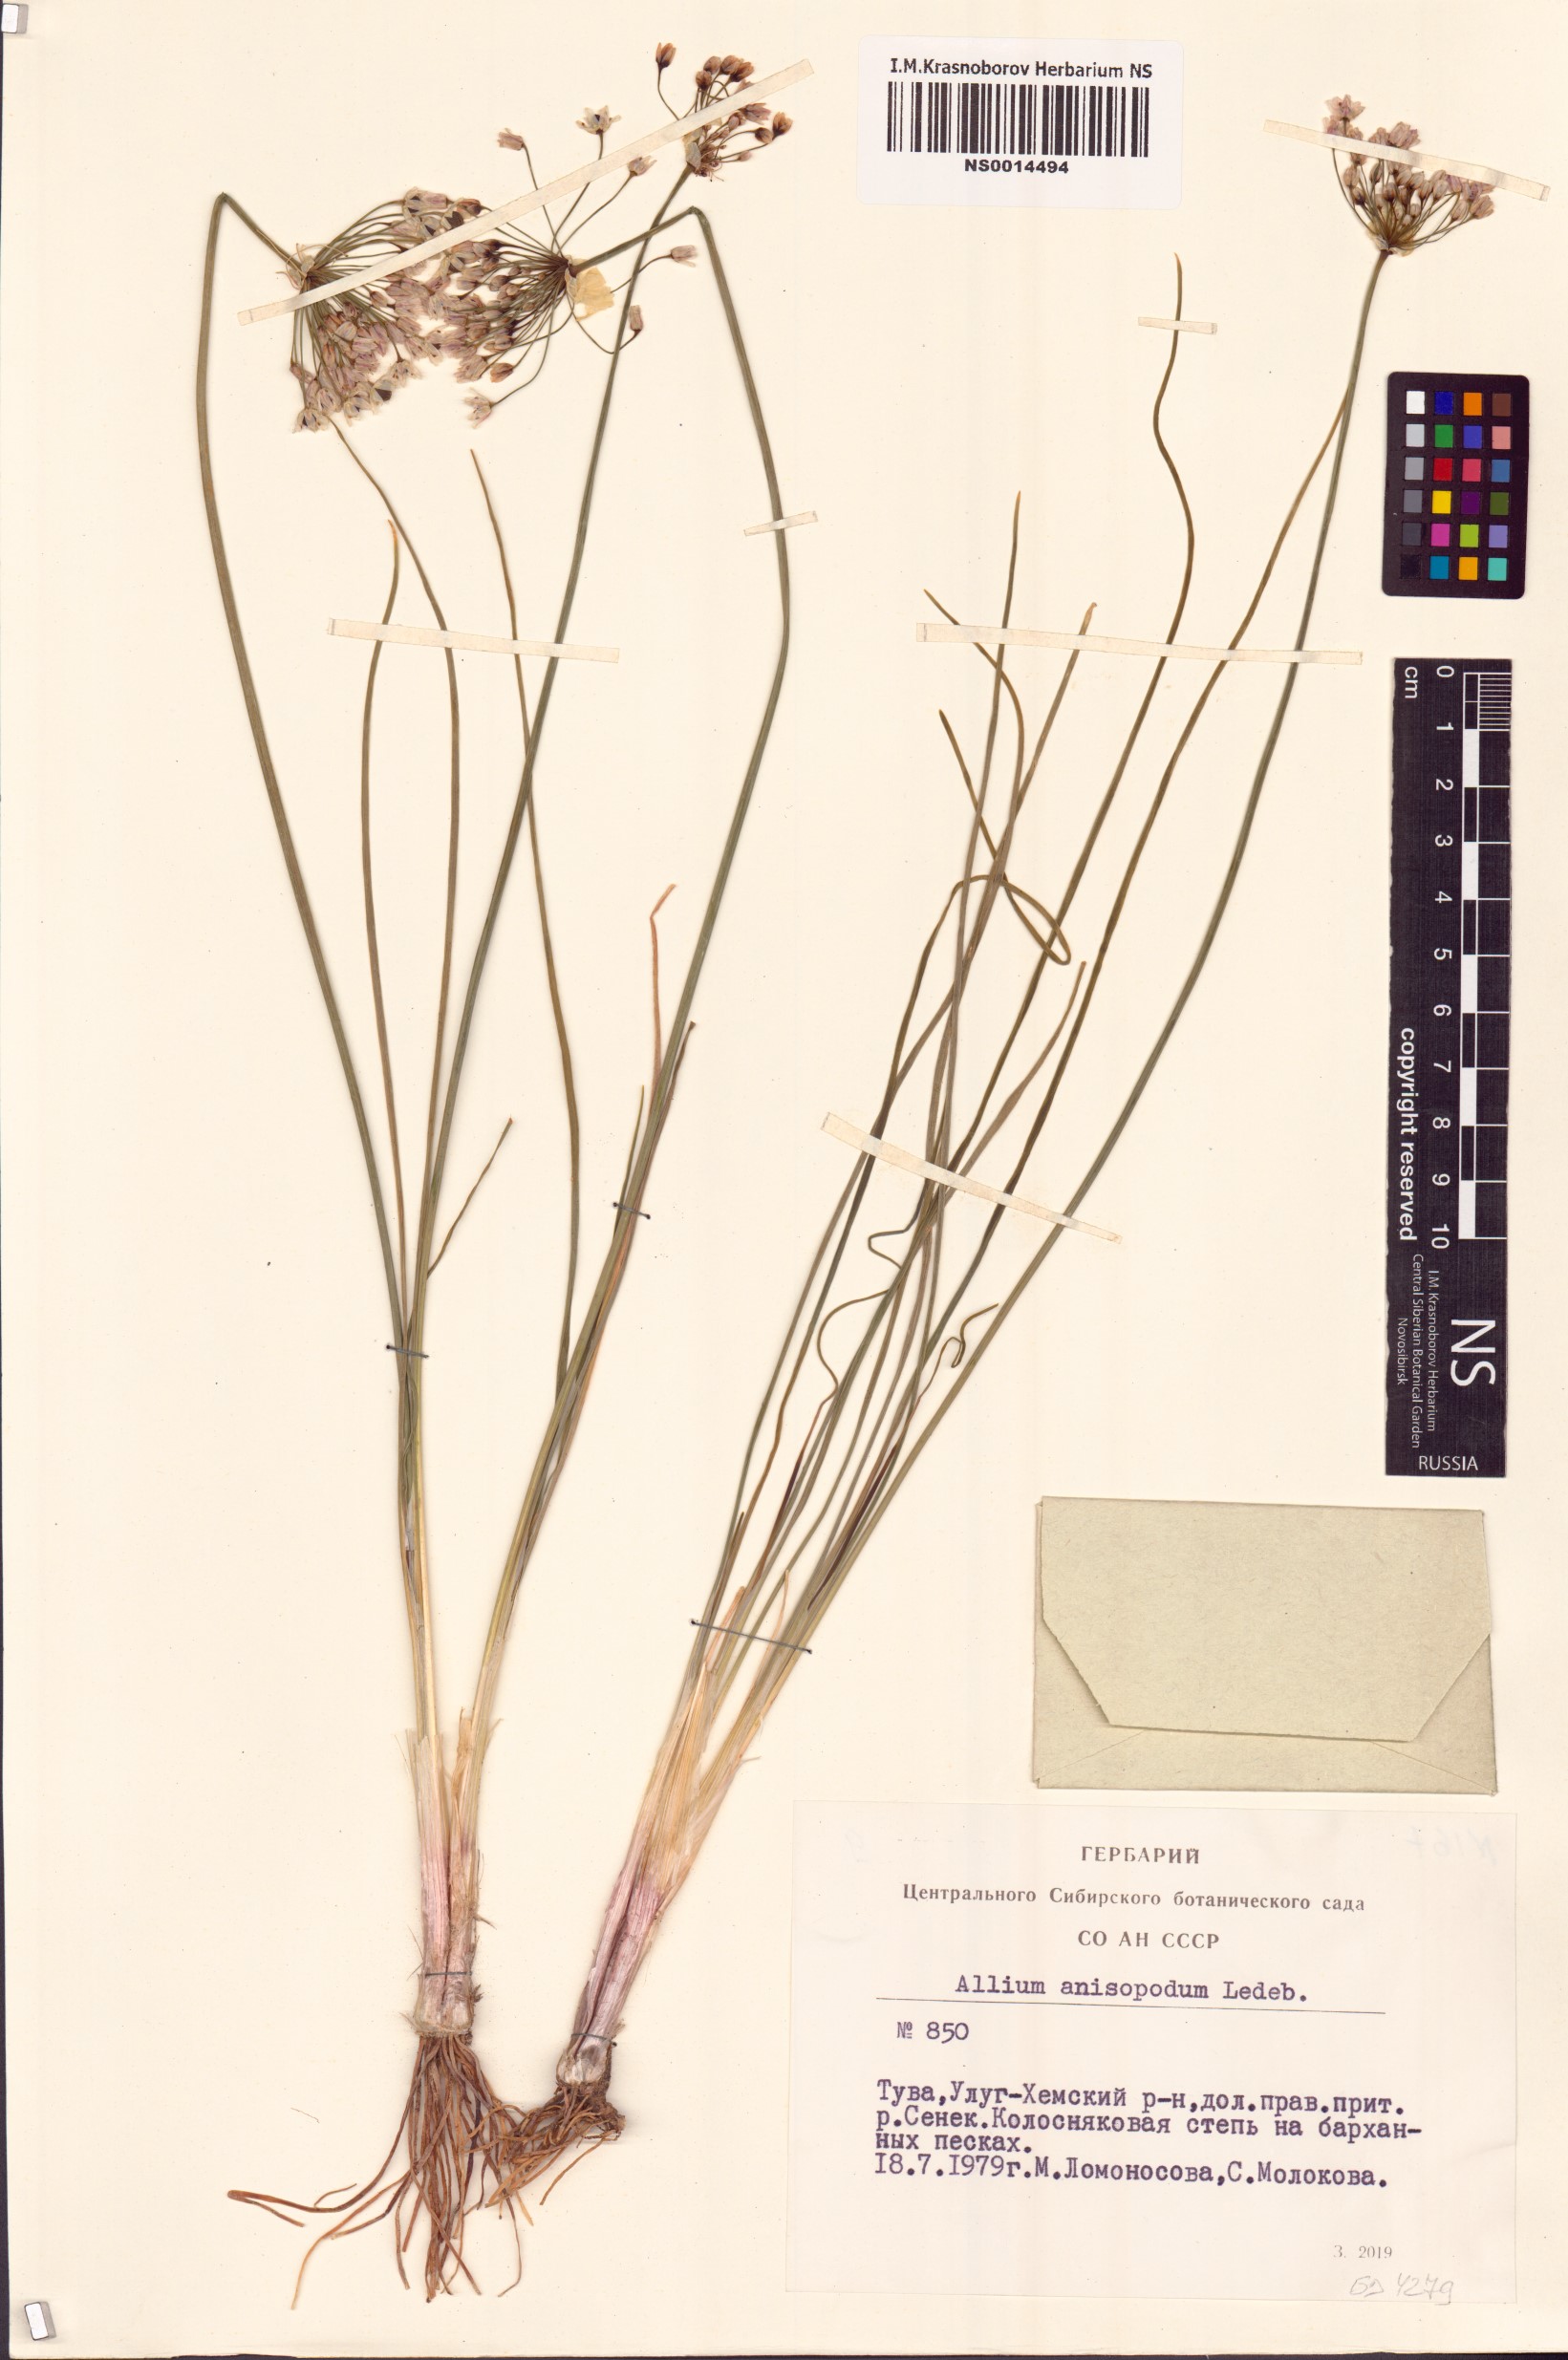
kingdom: Plantae
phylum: Tracheophyta
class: Liliopsida
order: Asparagales
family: Amaryllidaceae
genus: Allium
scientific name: Allium anisopodium
